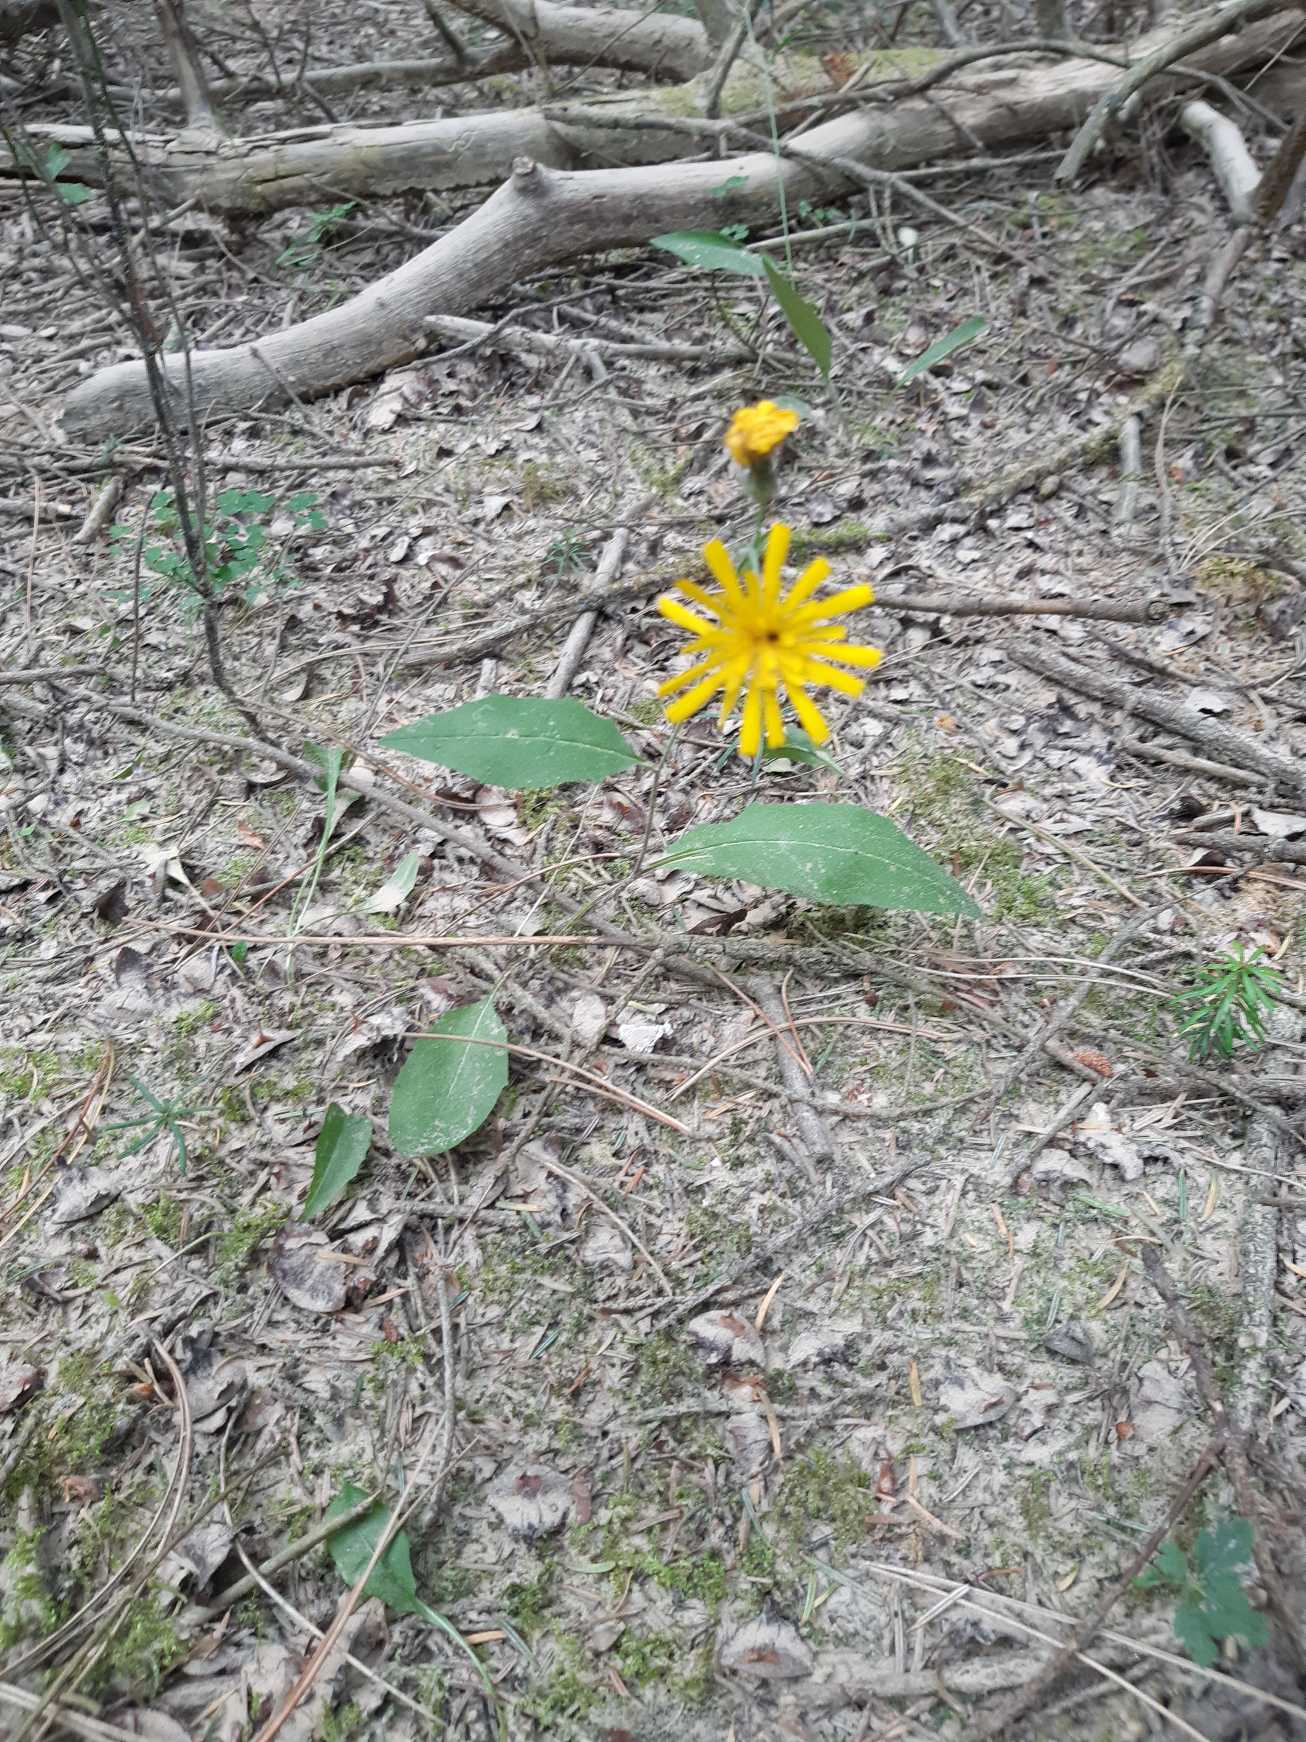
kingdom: Plantae
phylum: Tracheophyta
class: Magnoliopsida
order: Asterales
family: Asteraceae
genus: Hieracium
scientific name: Hieracium
